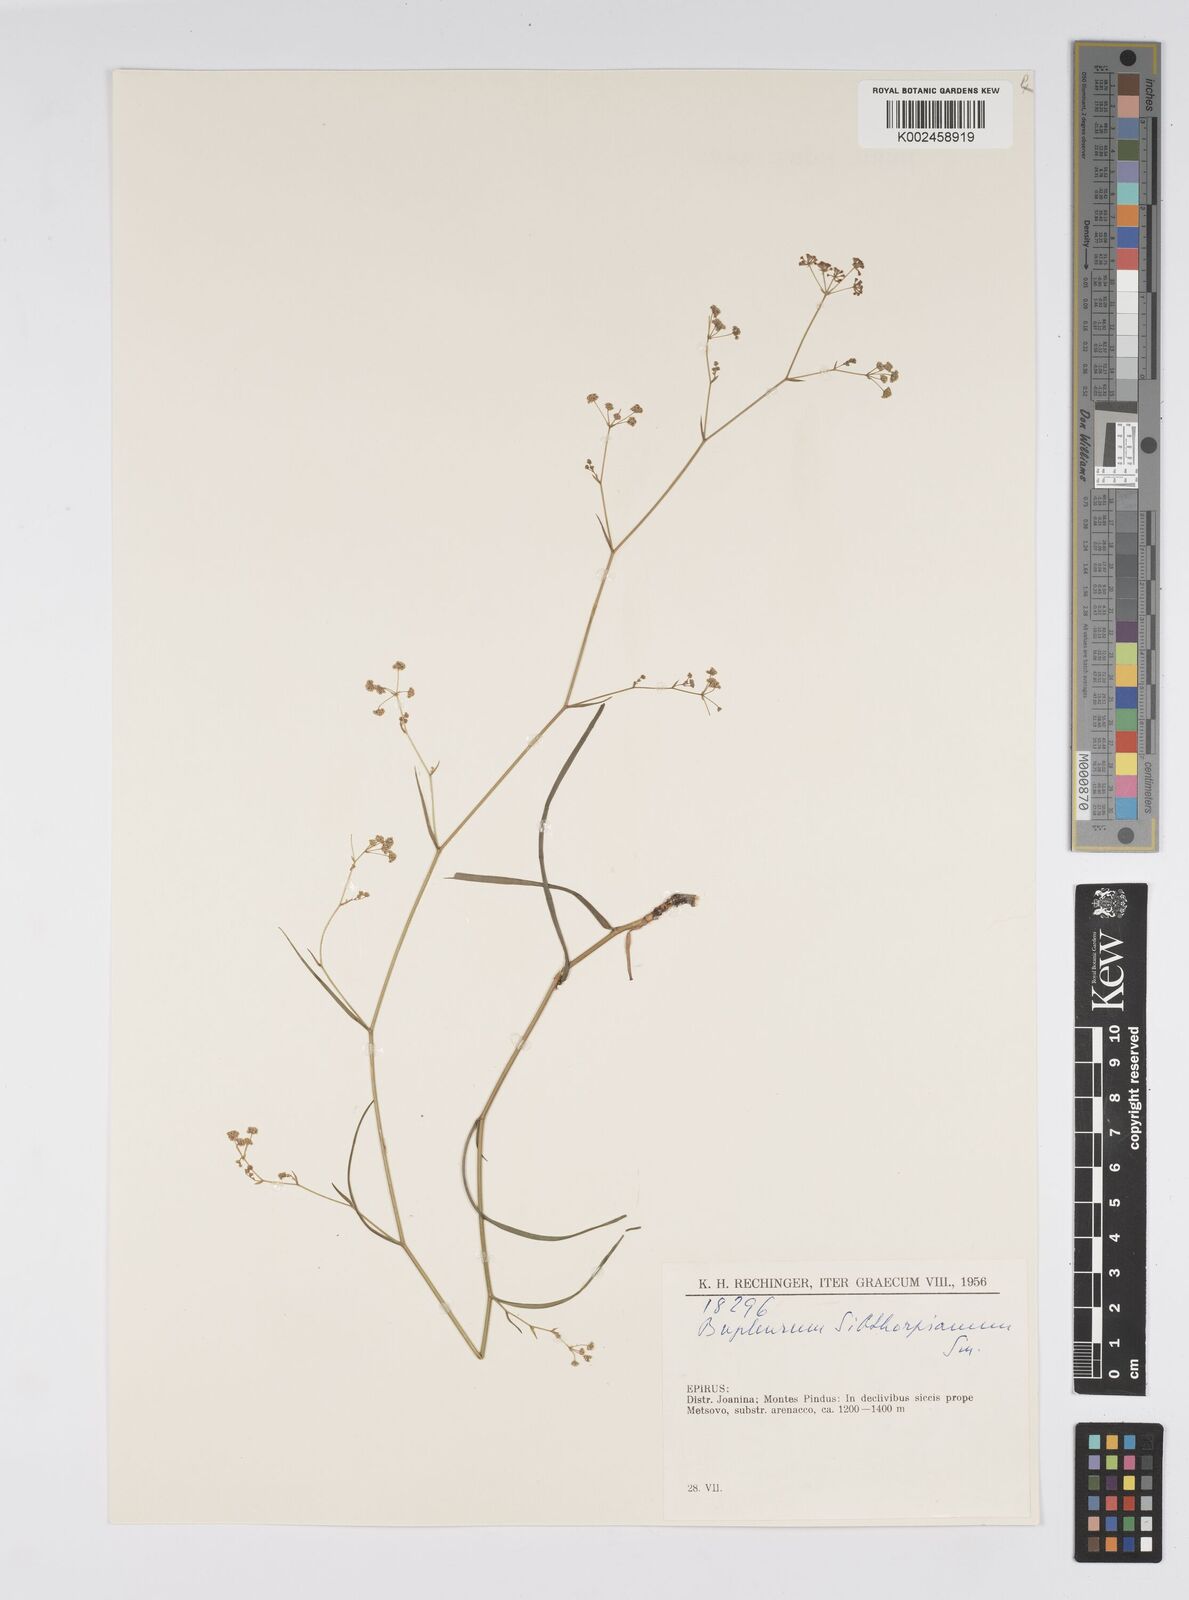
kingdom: Plantae
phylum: Tracheophyta
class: Magnoliopsida
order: Apiales
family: Apiaceae
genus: Bupleurum
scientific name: Bupleurum falcatum
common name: Sickle-leaved hare's-ear
